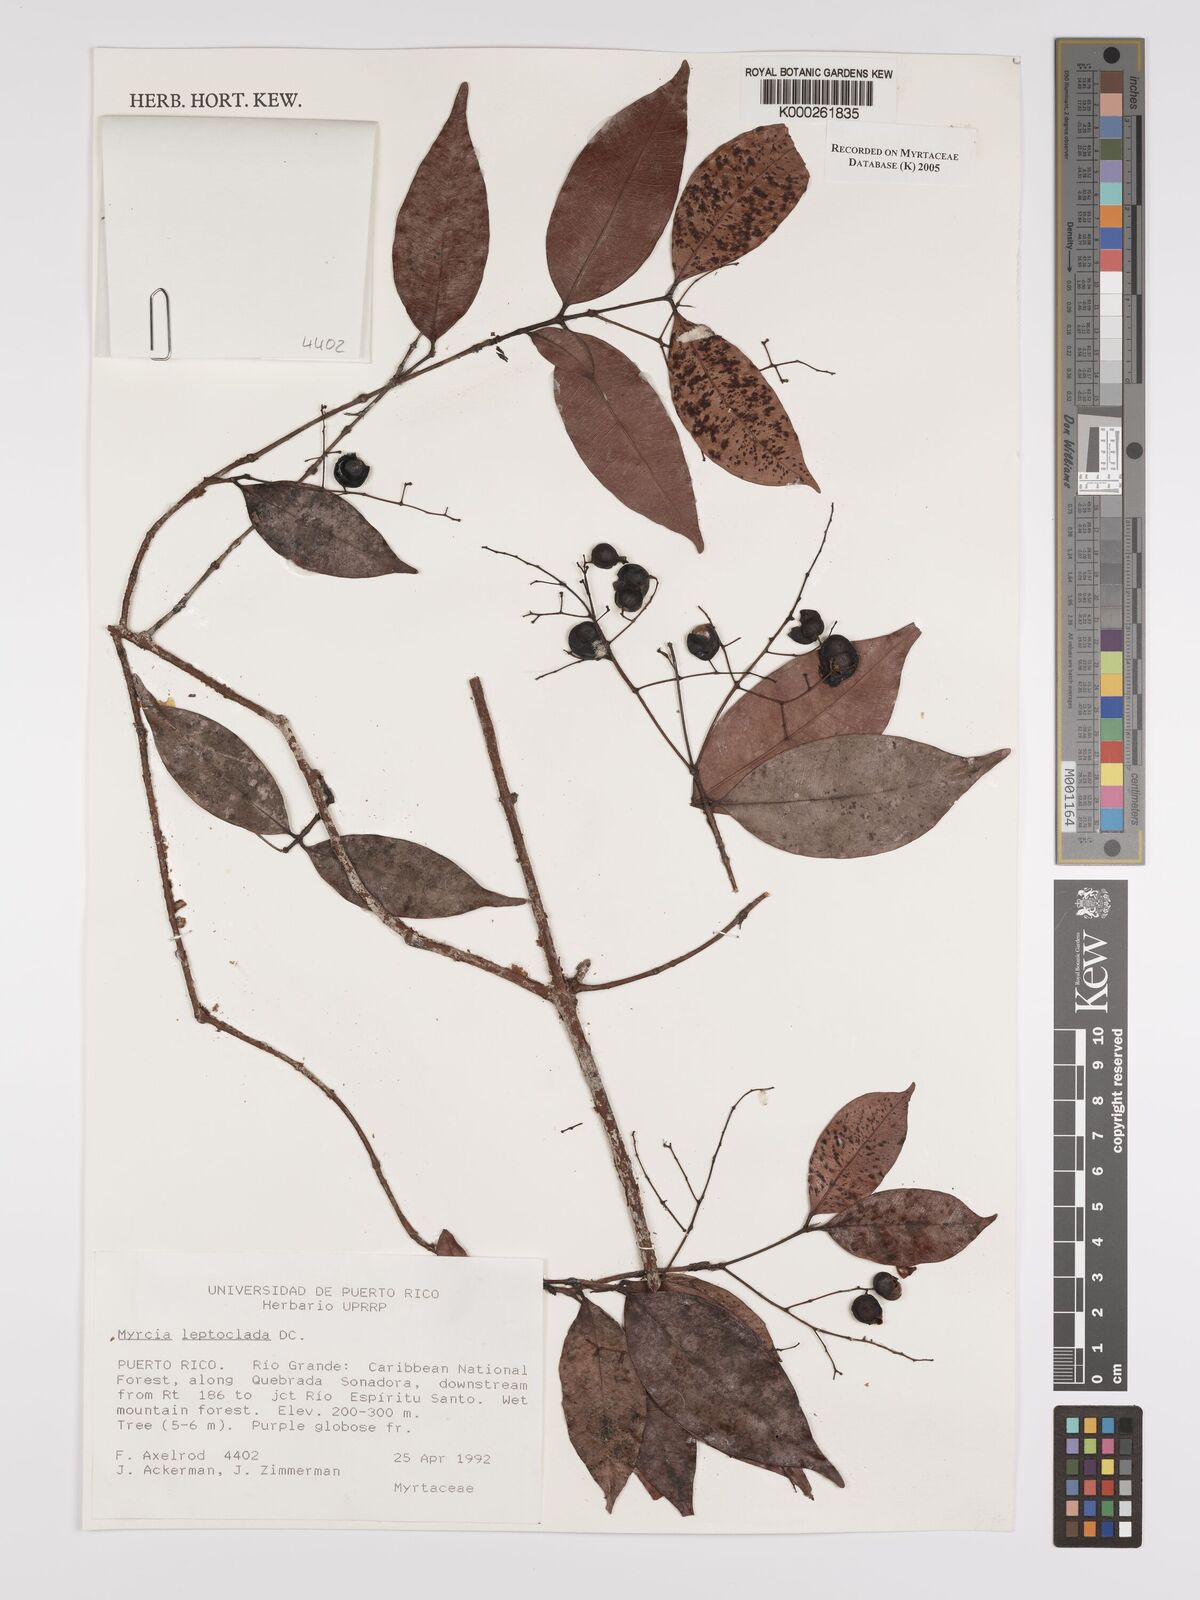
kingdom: Plantae
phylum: Tracheophyta
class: Magnoliopsida
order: Myrtales
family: Myrtaceae
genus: Myrcia
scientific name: Myrcia amazonica
